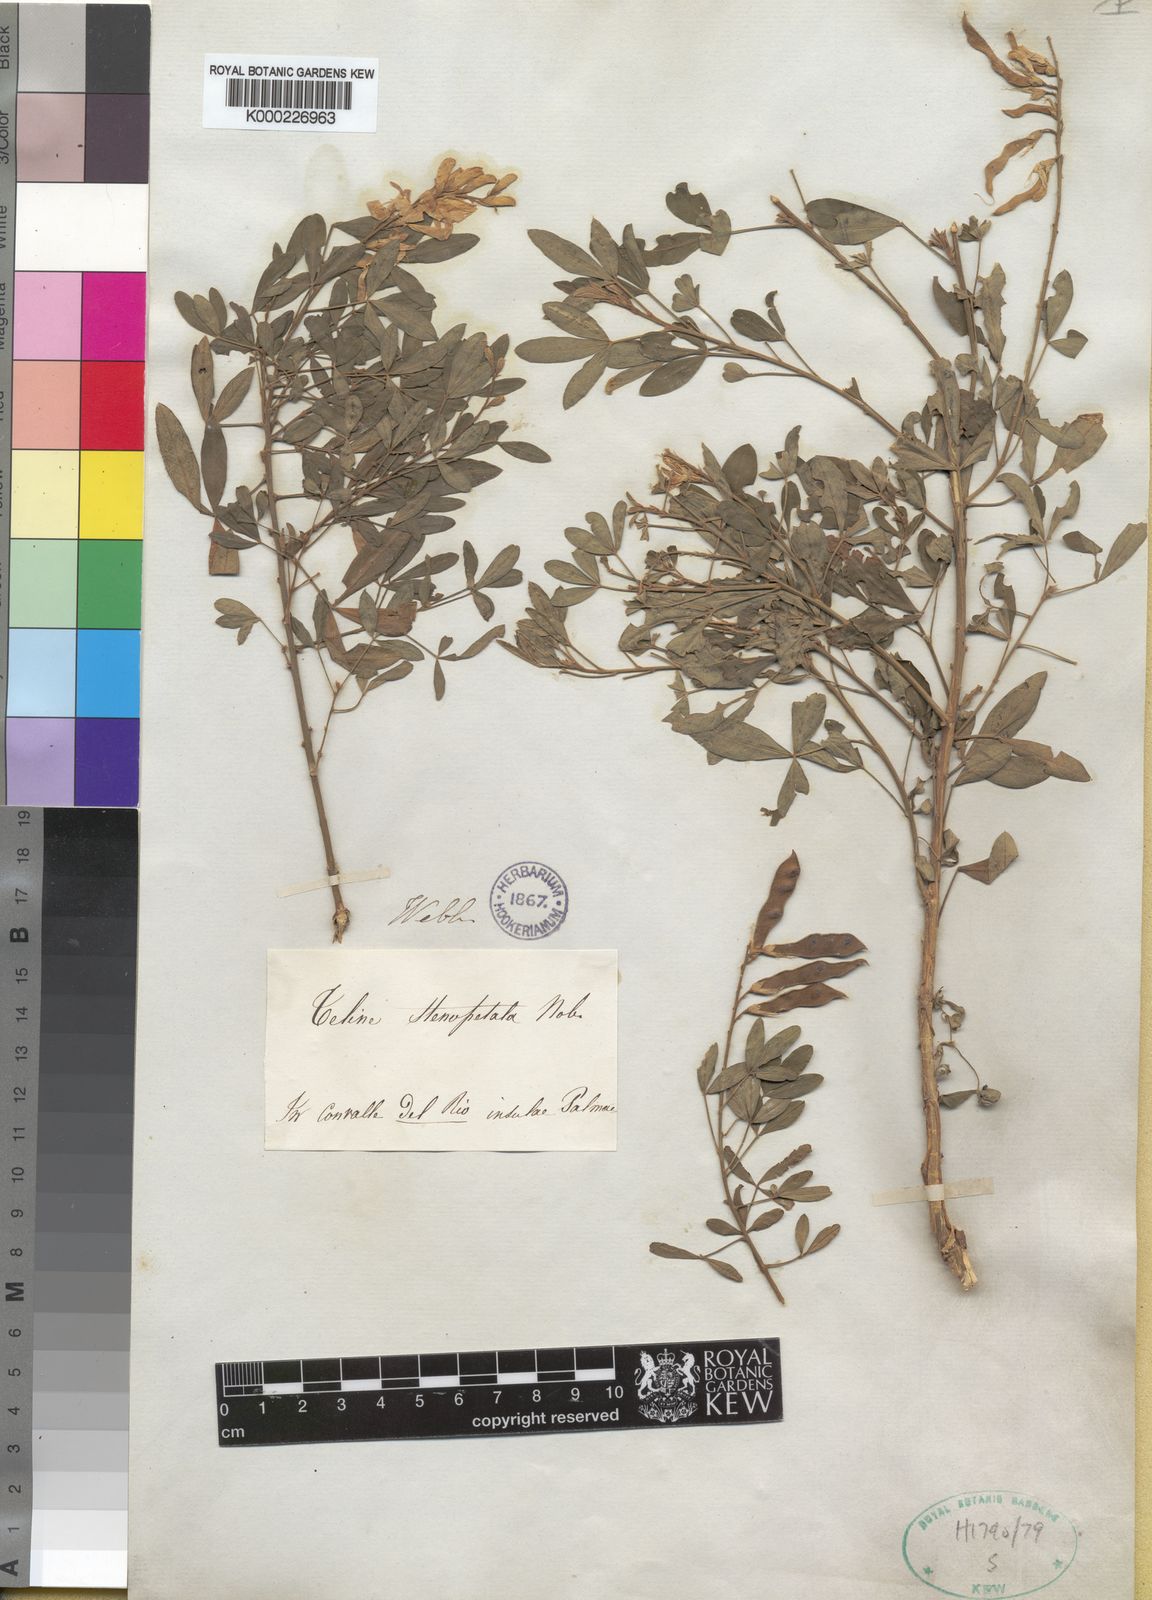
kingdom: Plantae
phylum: Tracheophyta
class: Magnoliopsida
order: Fabales
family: Fabaceae
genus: Genista
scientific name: Genista stenopetala
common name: Leafy broom
